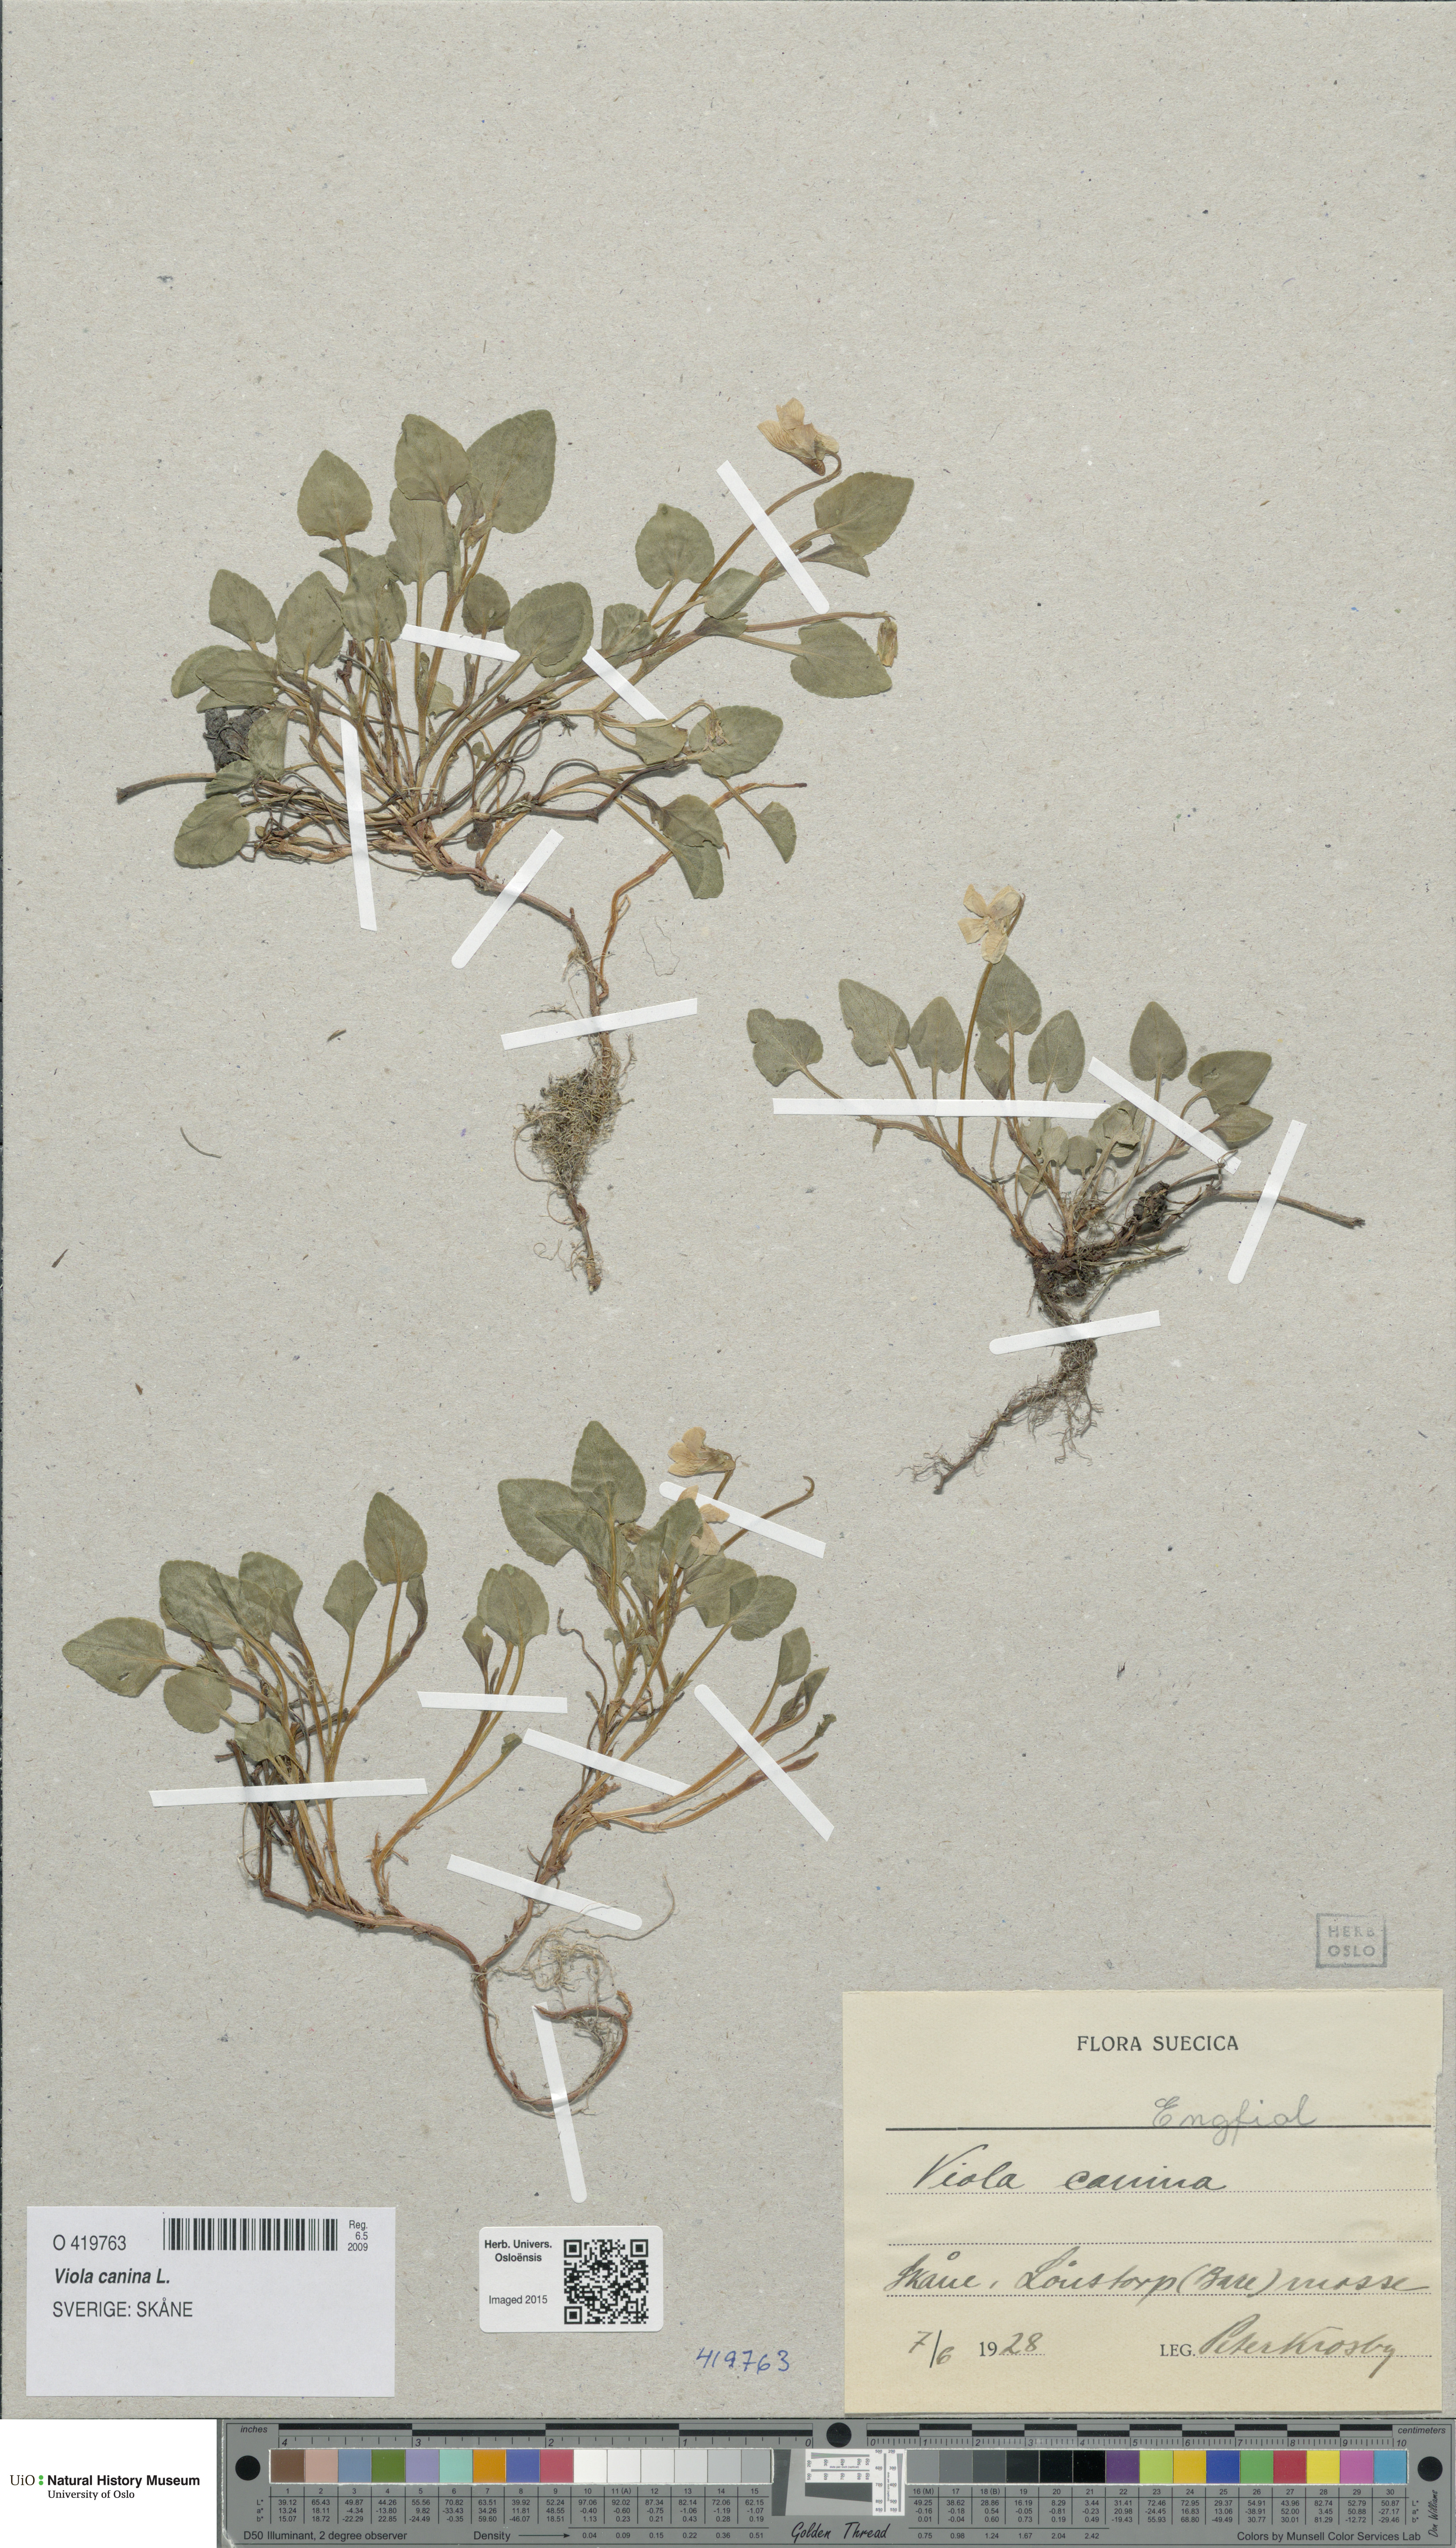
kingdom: Plantae
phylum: Tracheophyta
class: Magnoliopsida
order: Malpighiales
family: Violaceae
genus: Viola
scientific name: Viola canina
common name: Heath dog-violet
